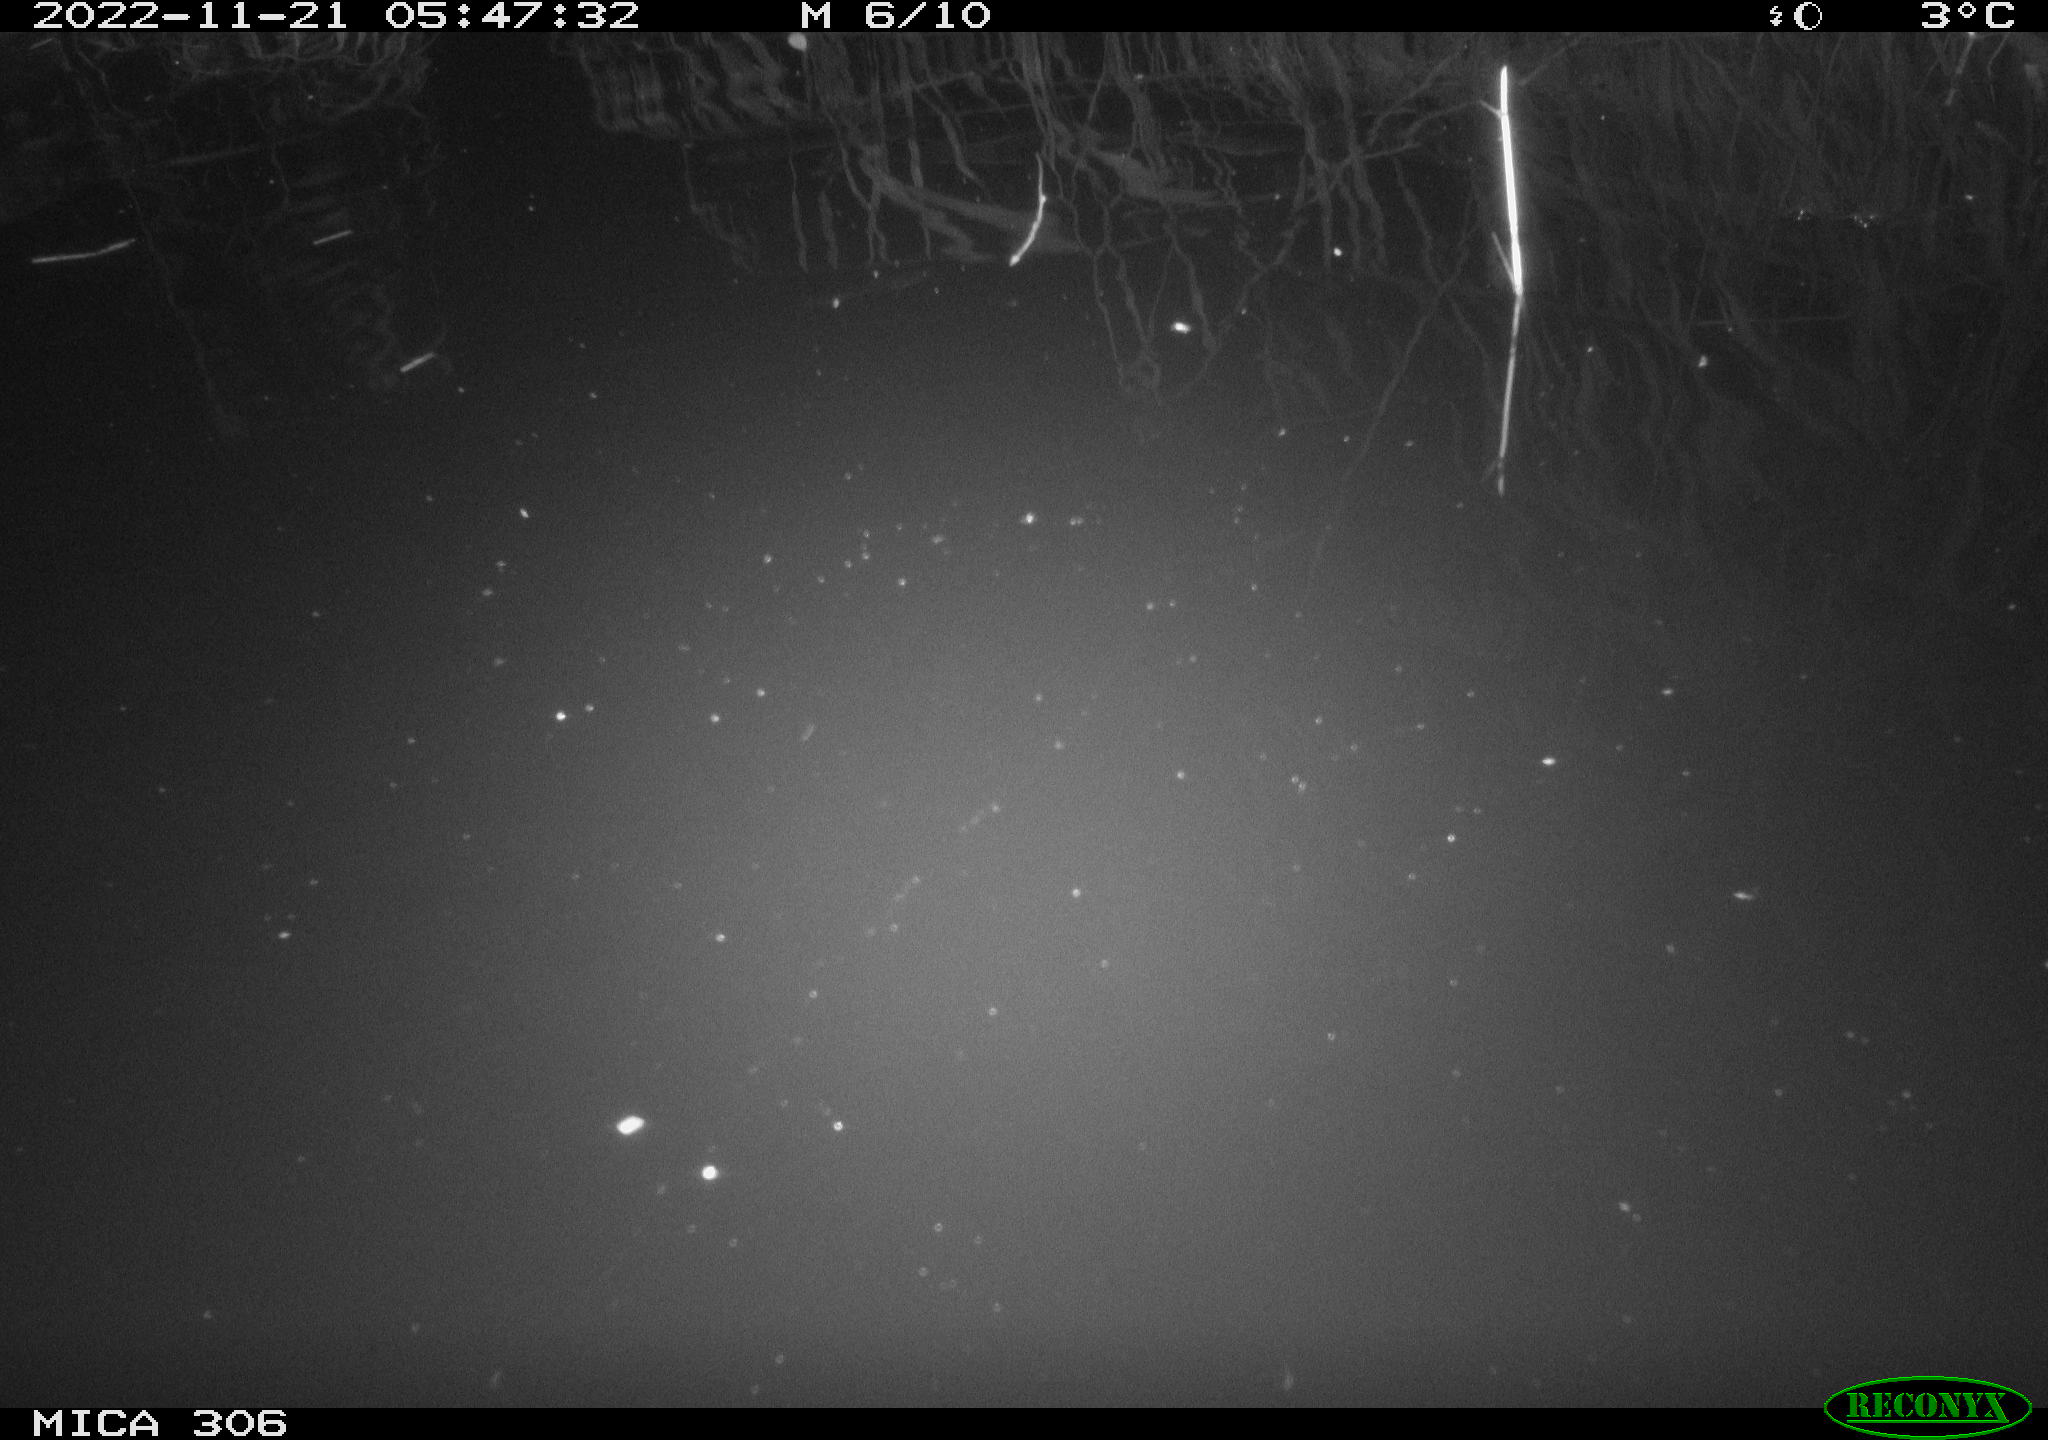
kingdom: Animalia
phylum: Chordata
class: Mammalia
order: Rodentia
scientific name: Rodentia
